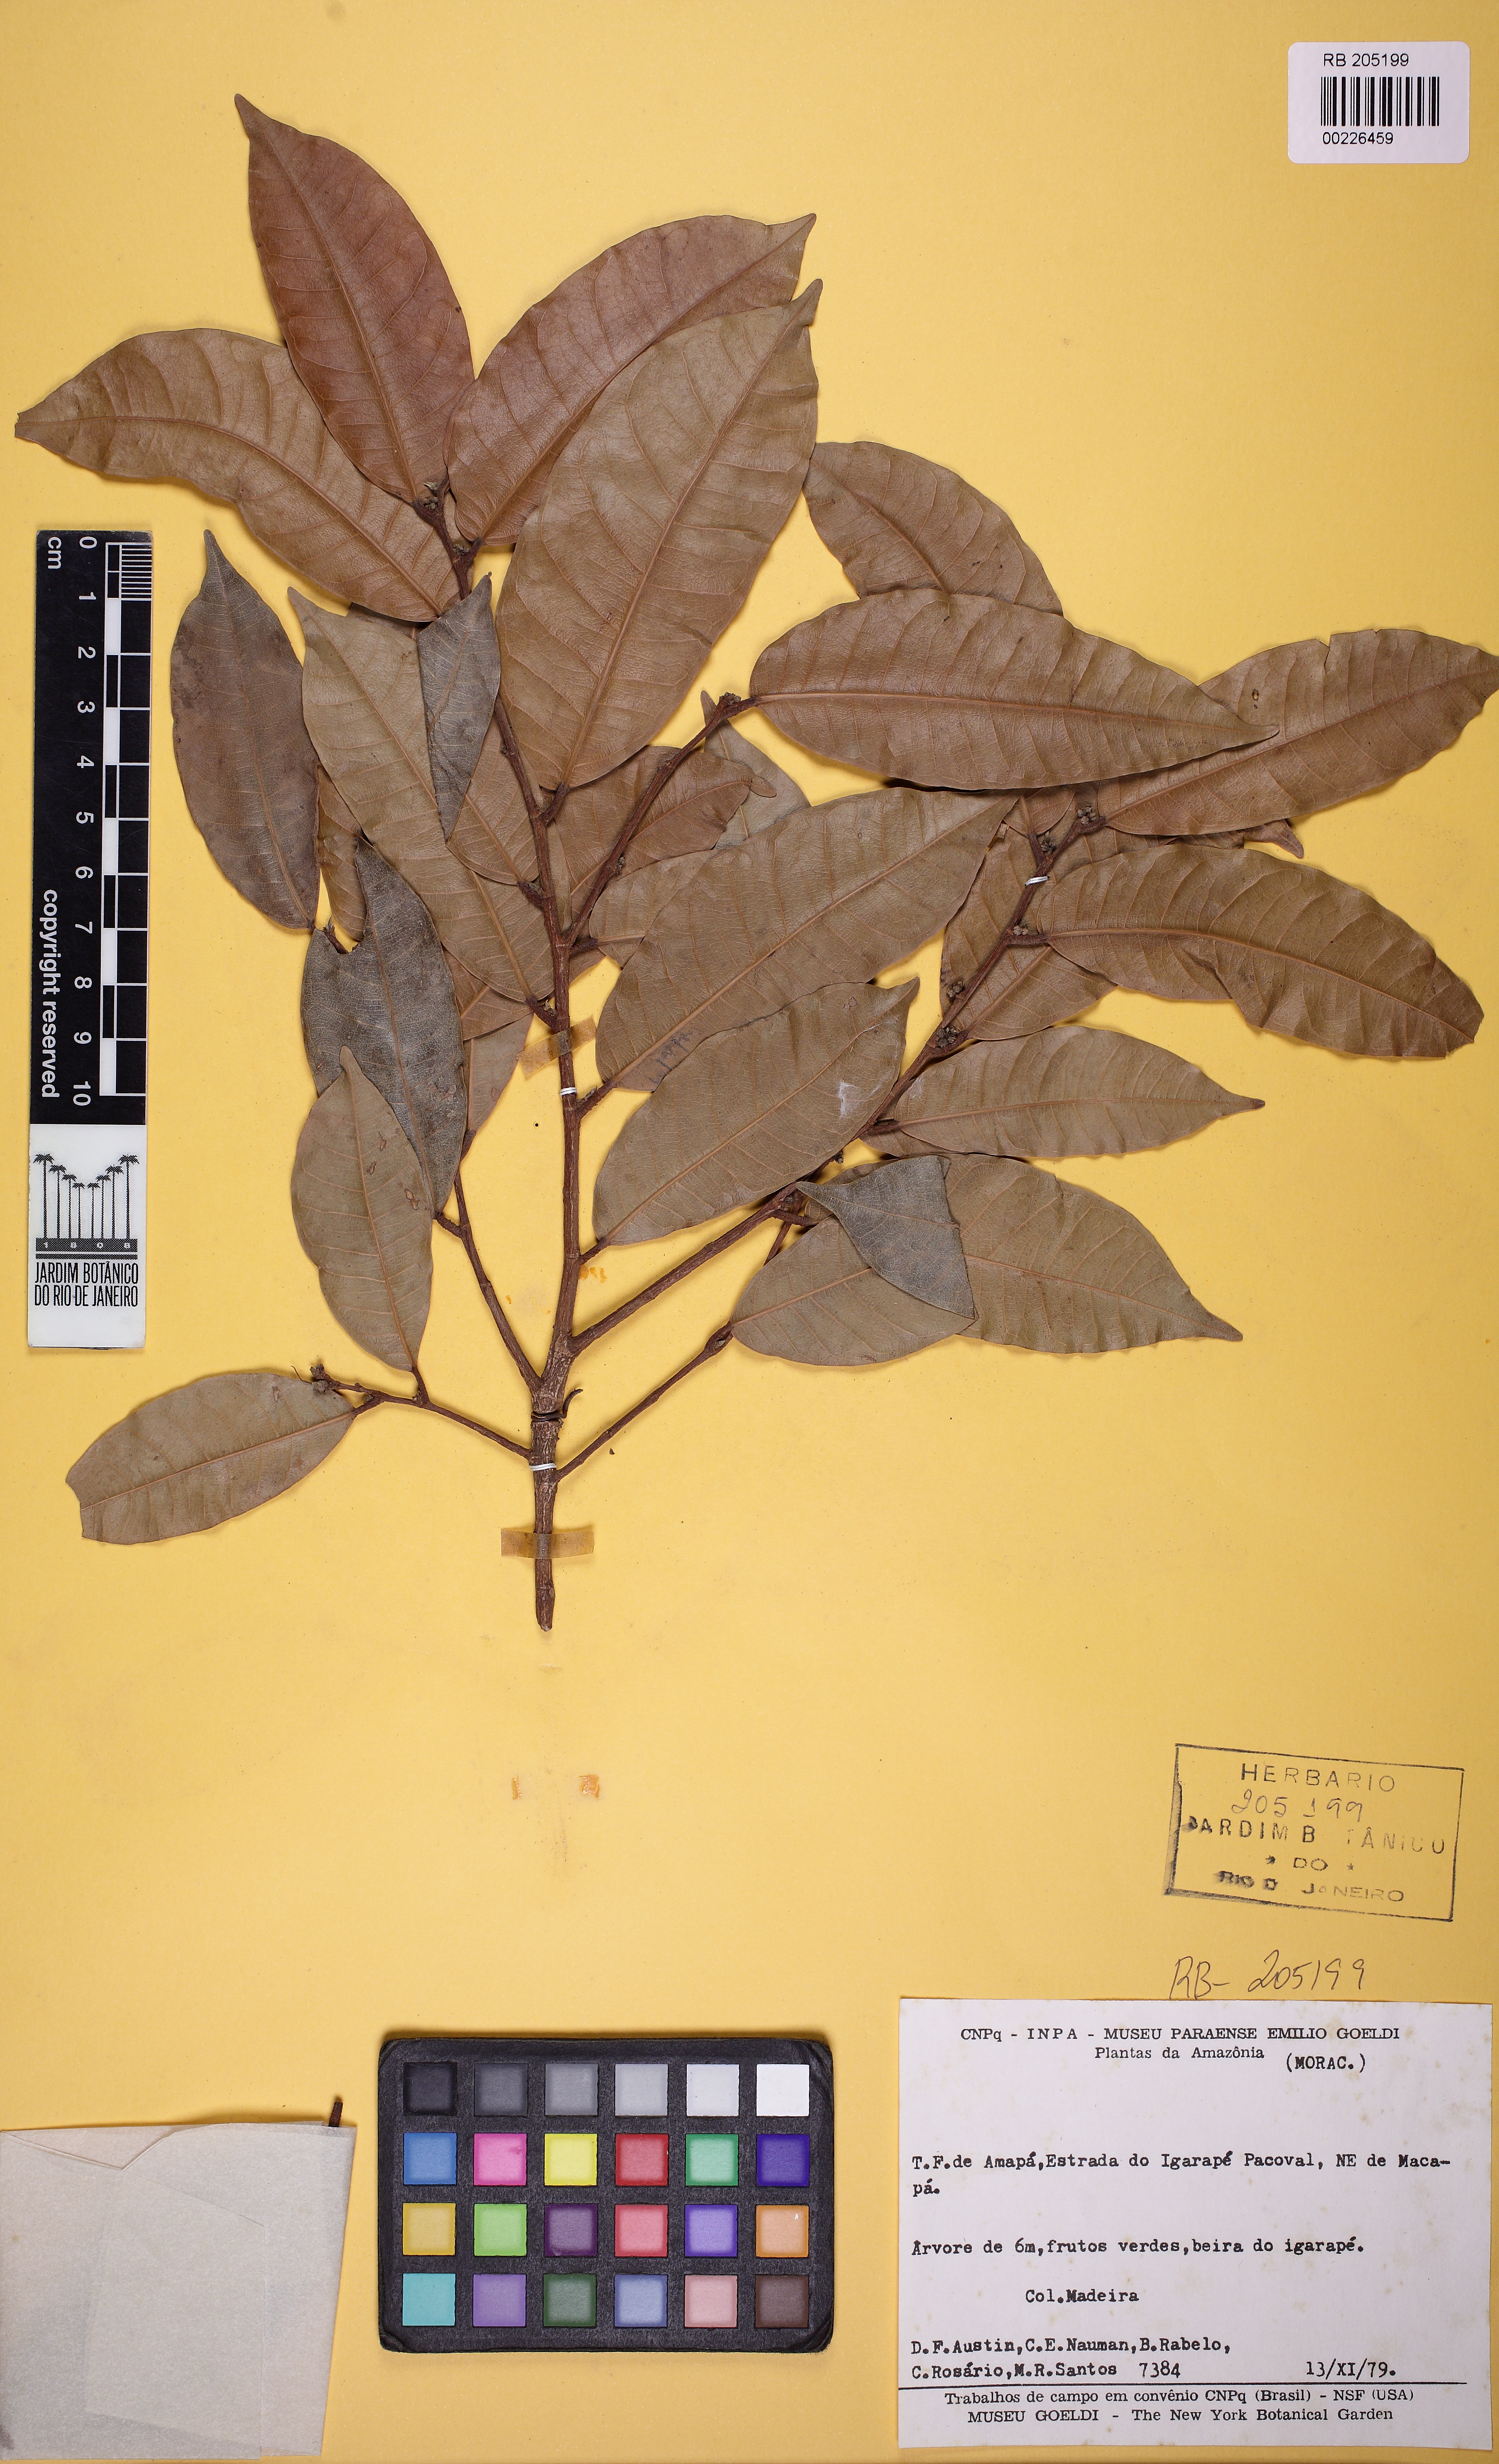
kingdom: Plantae
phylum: Tracheophyta
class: Magnoliopsida
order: Rosales
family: Moraceae
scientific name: Moraceae
